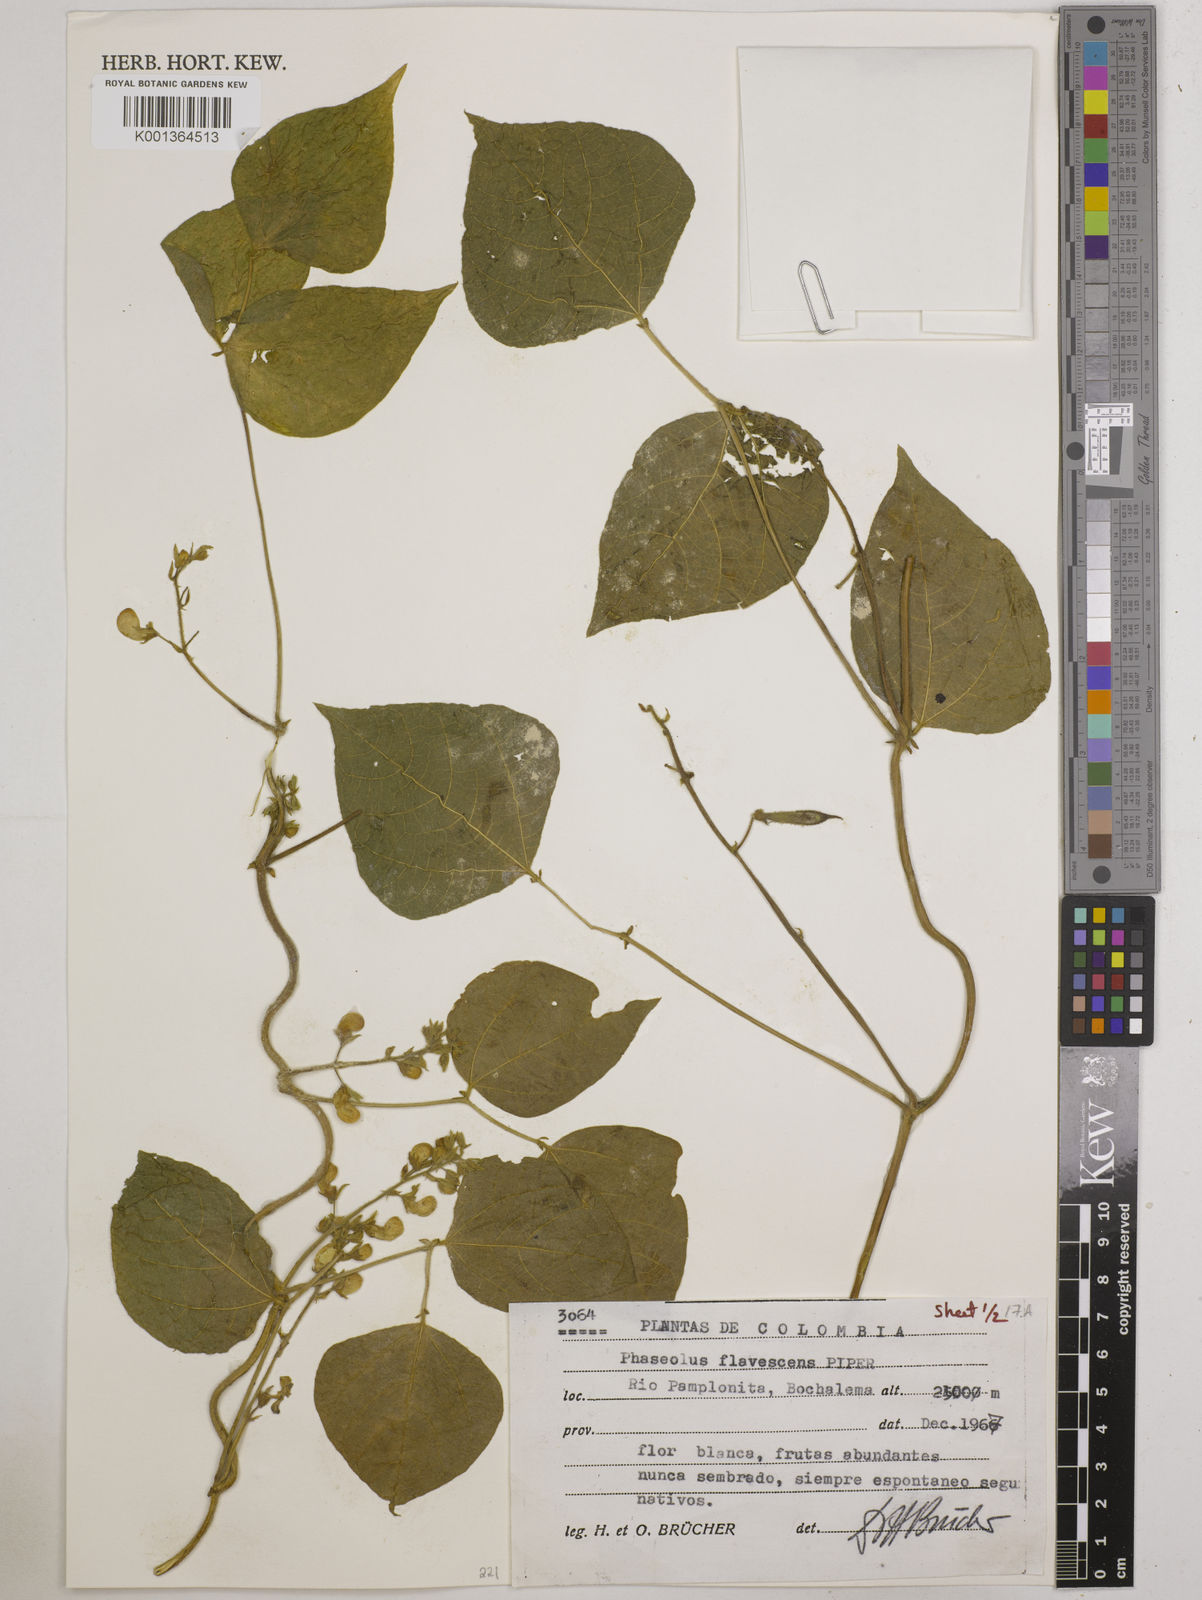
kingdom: Plantae
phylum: Tracheophyta
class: Magnoliopsida
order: Fabales
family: Fabaceae
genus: Phaseolus
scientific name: Phaseolus
